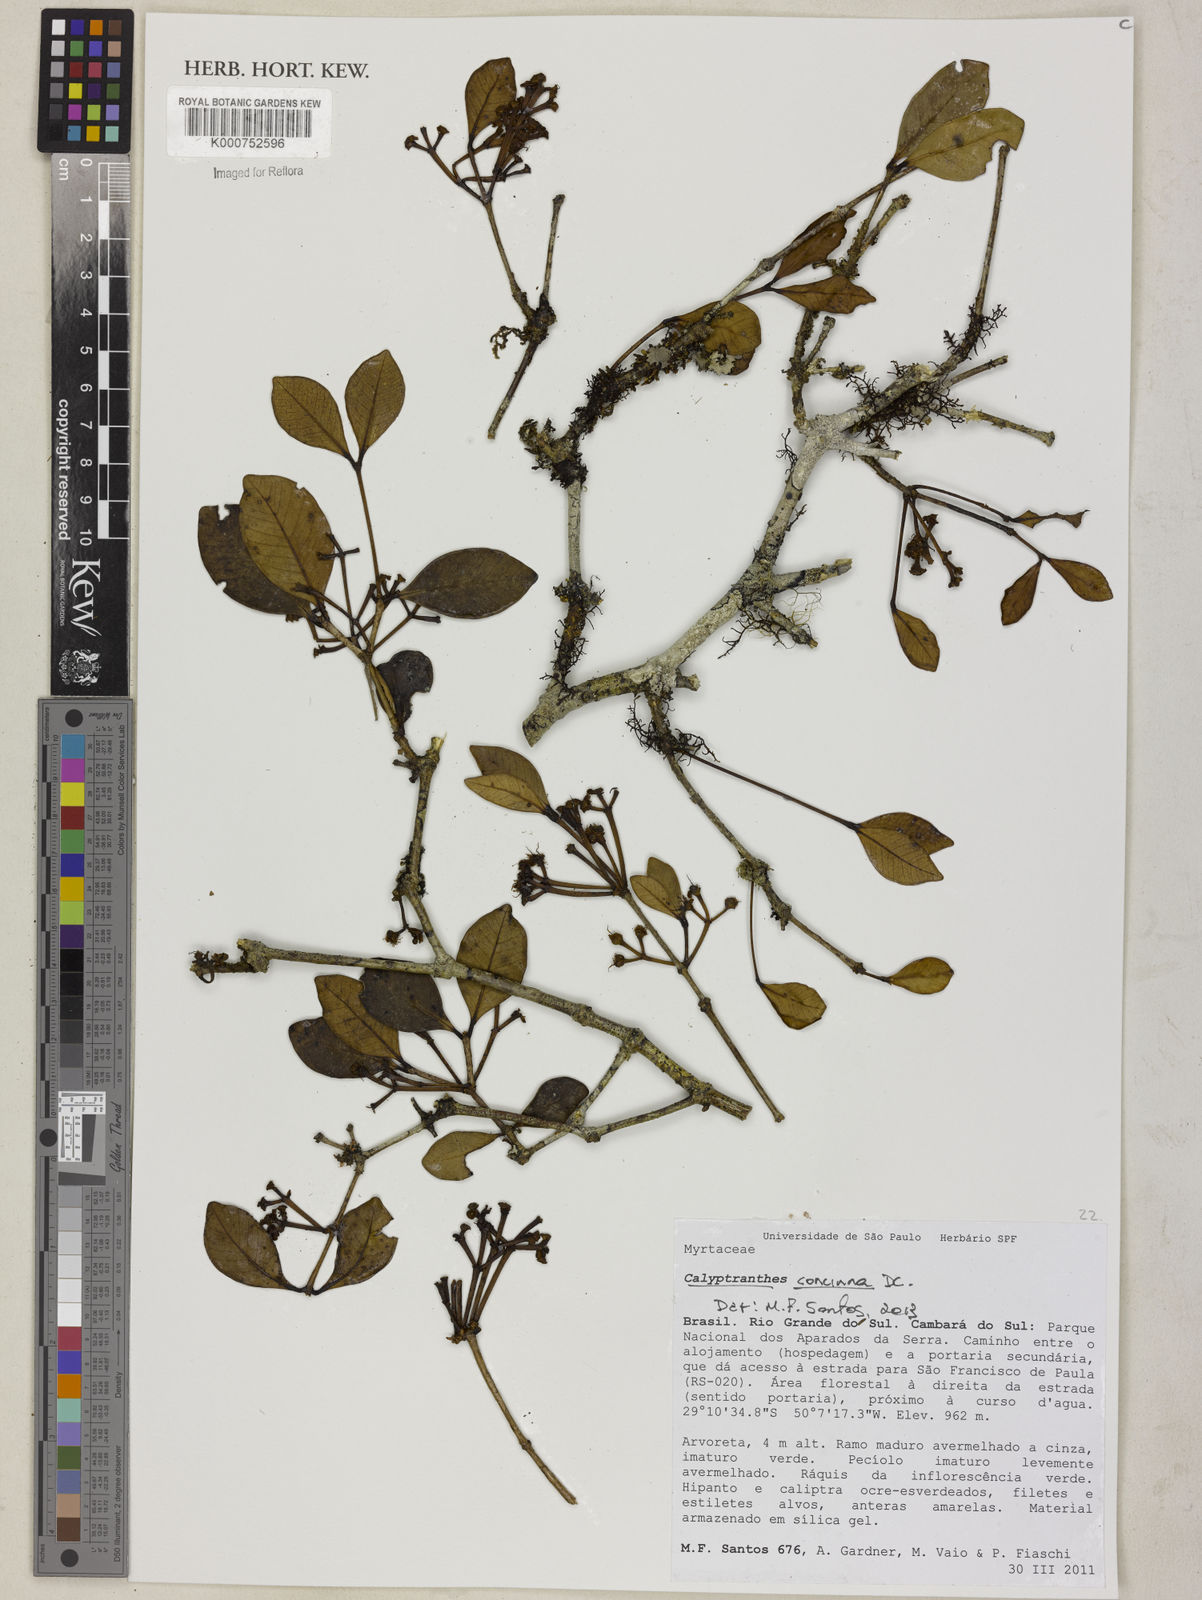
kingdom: Plantae
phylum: Tracheophyta
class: Magnoliopsida
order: Myrtales
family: Myrtaceae
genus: Myrcia
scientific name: Myrcia cruciflora
